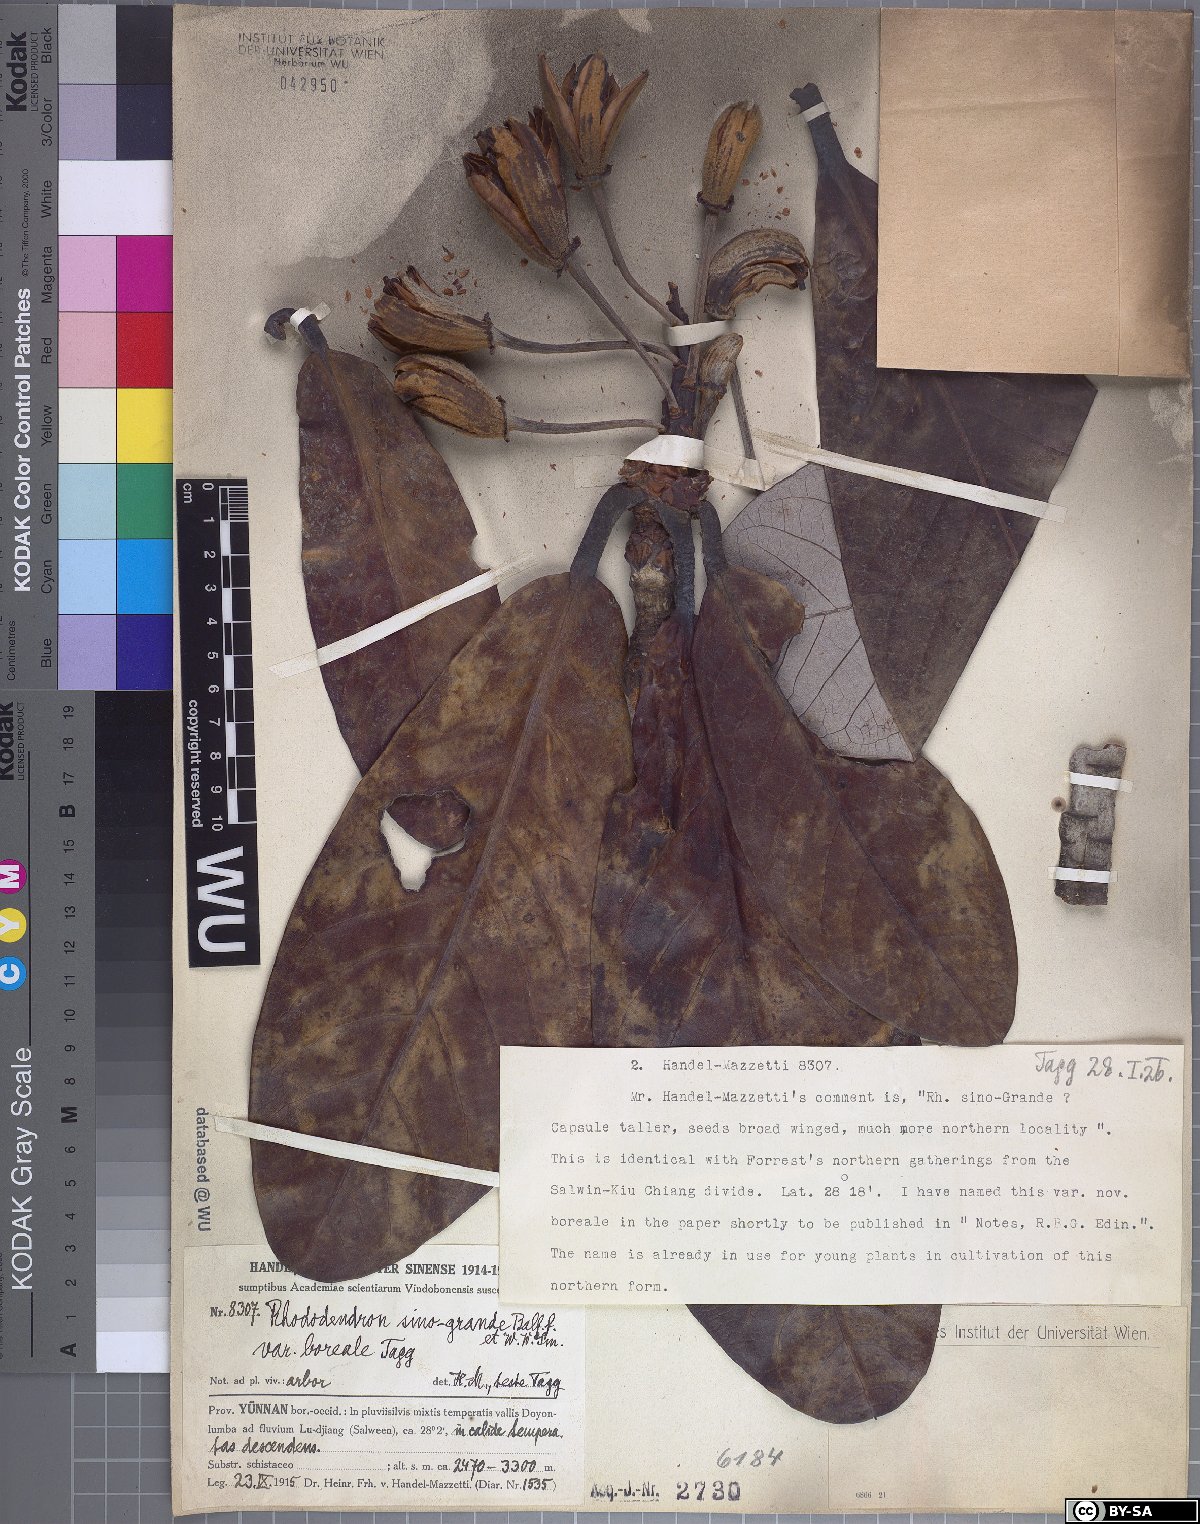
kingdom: Plantae
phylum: Tracheophyta
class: Magnoliopsida
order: Ericales
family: Ericaceae
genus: Rhododendron
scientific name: Rhododendron sinogrande
